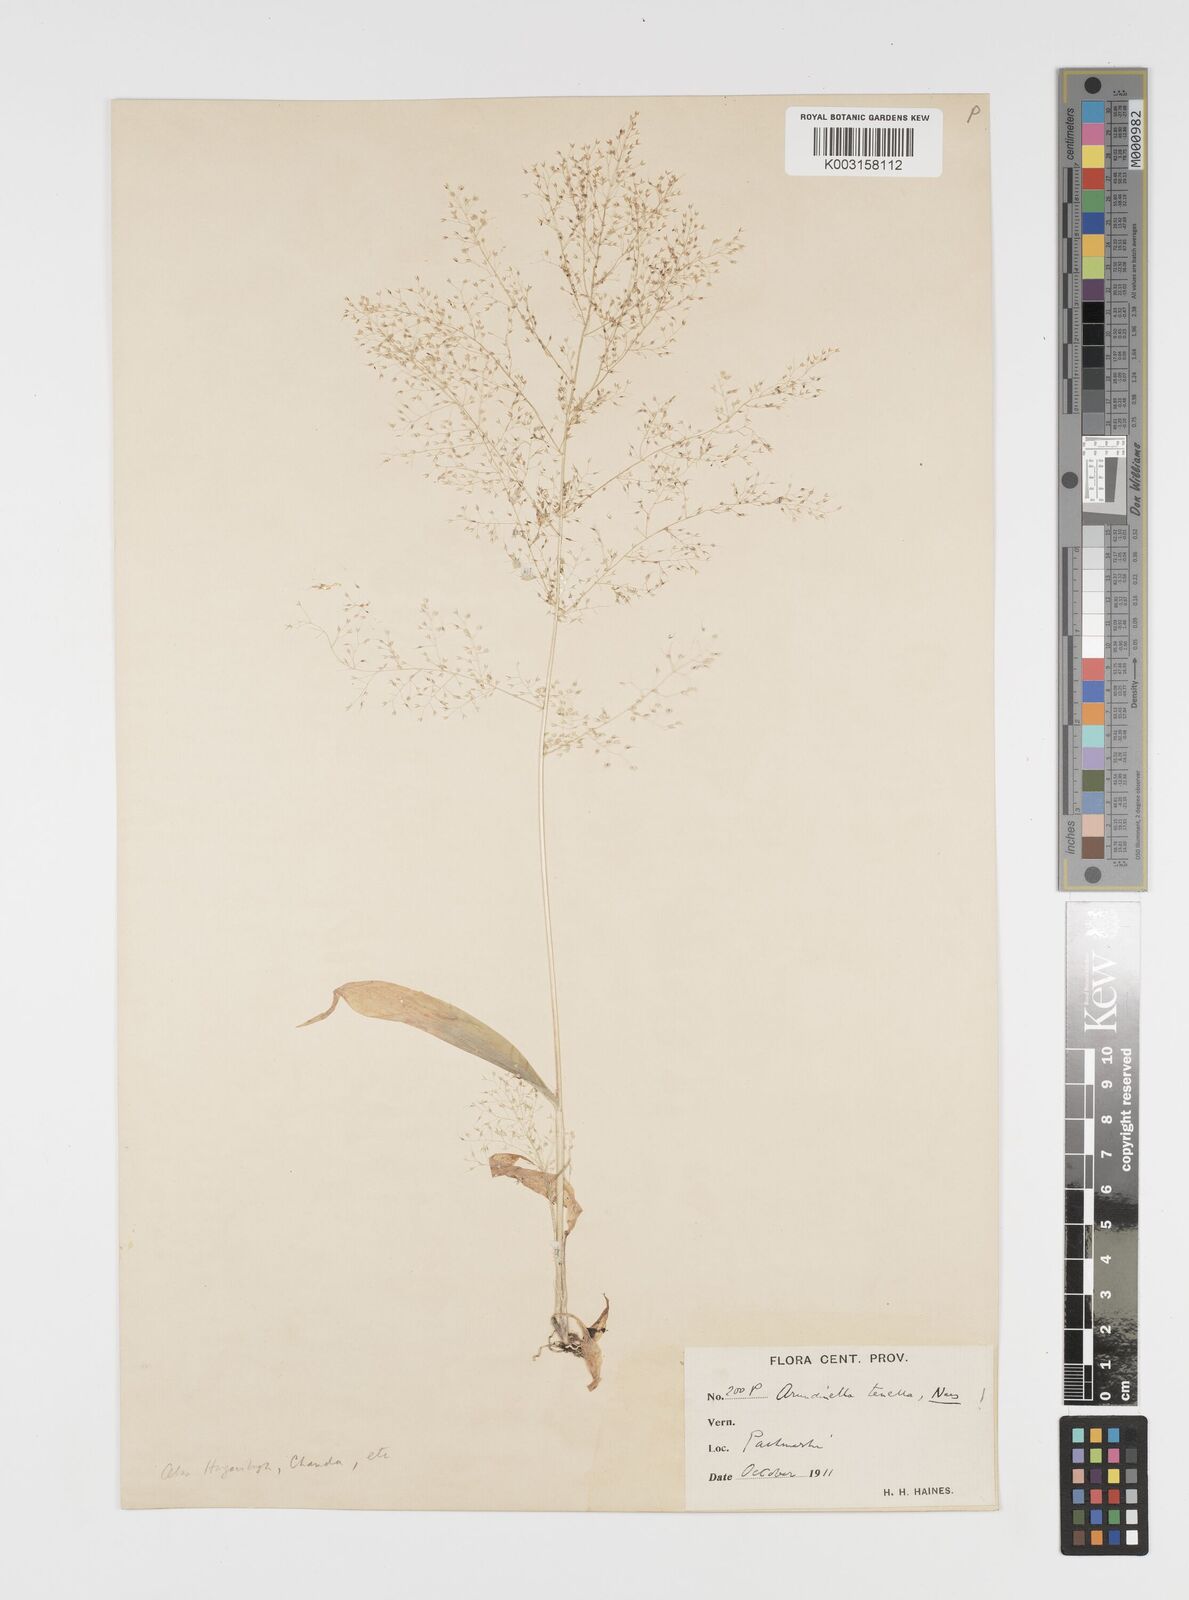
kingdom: Plantae
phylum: Tracheophyta
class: Liliopsida
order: Poales
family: Poaceae
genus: Arundinella
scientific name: Arundinella pumila
